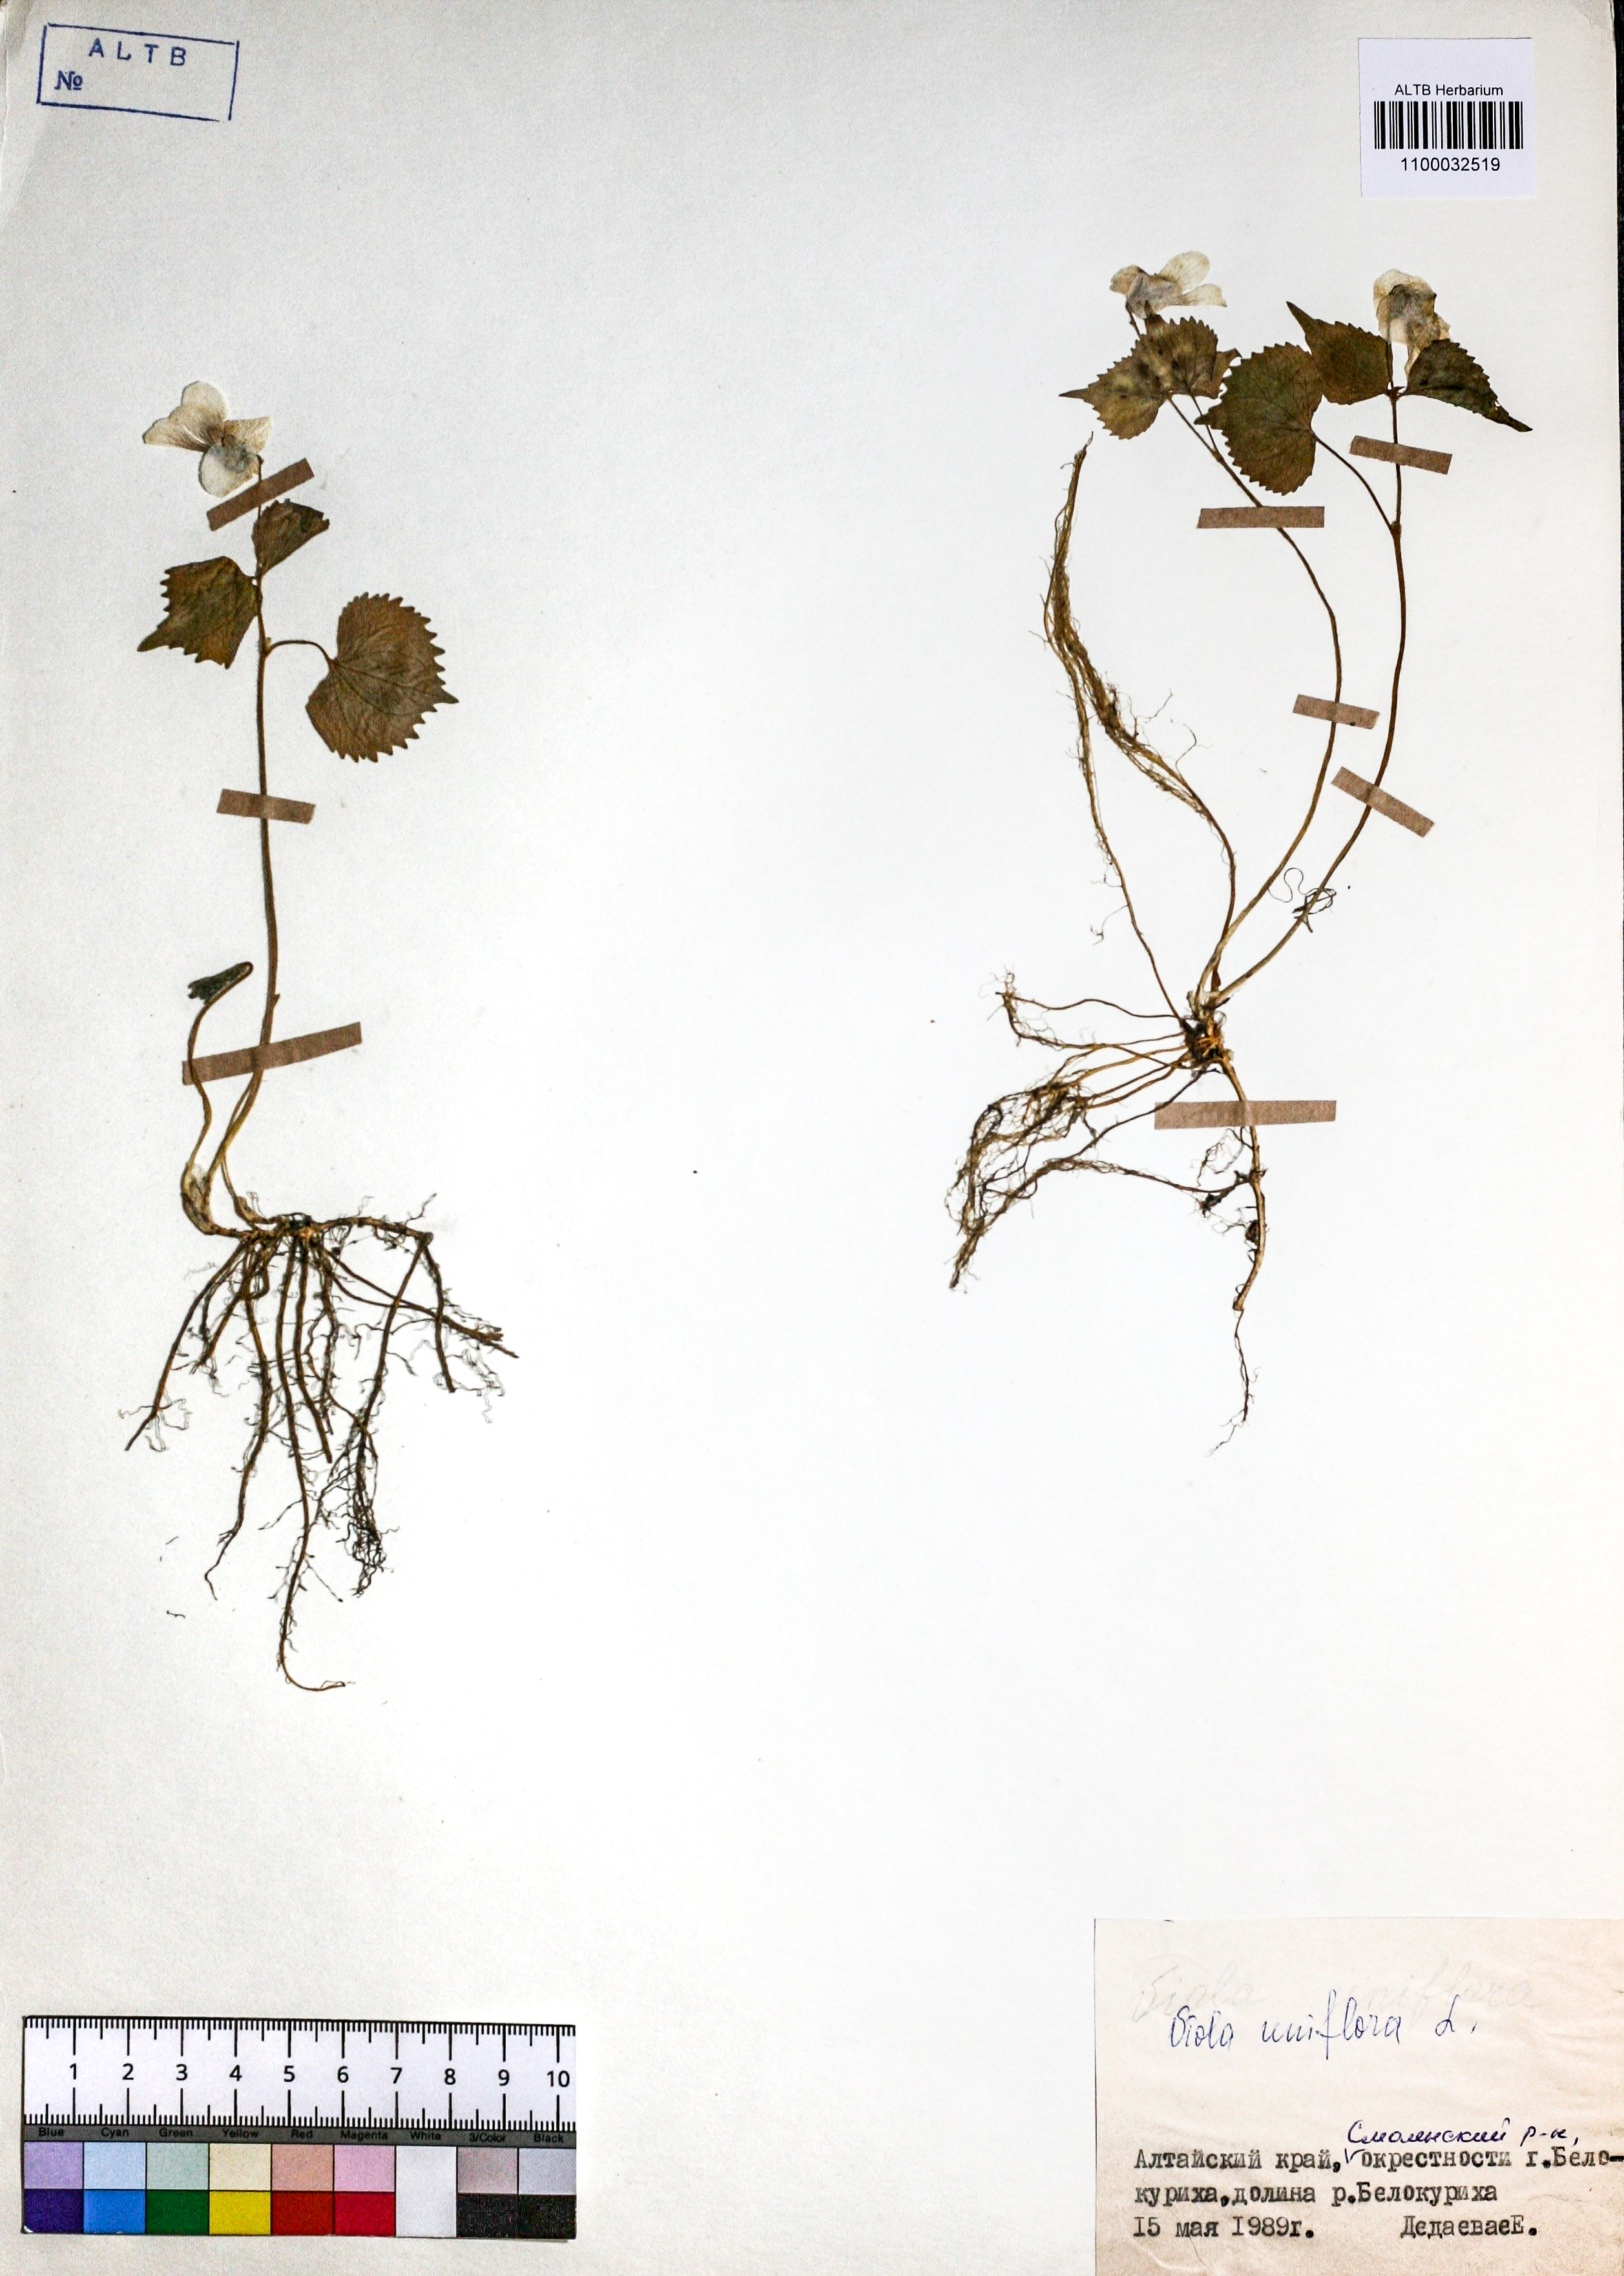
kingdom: Plantae
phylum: Tracheophyta
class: Magnoliopsida
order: Malpighiales
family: Violaceae
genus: Viola
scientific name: Viola uniflora
